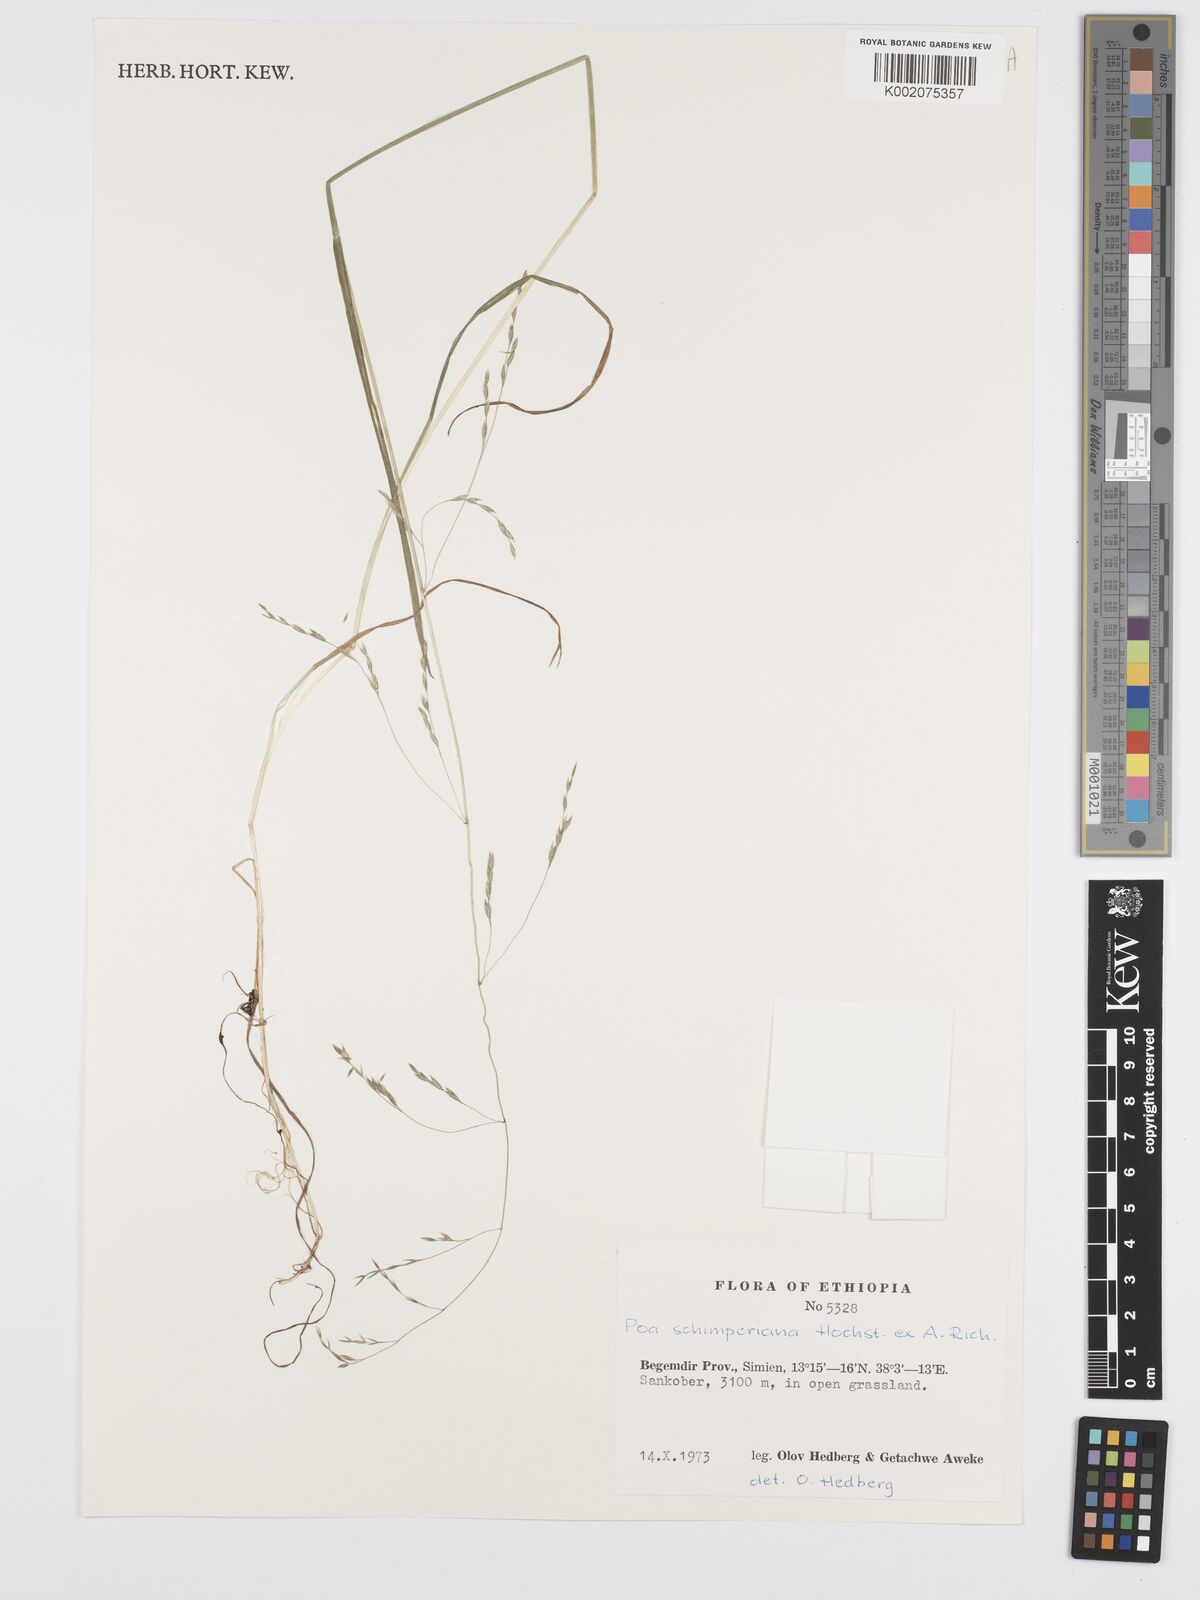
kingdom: Plantae
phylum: Tracheophyta
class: Liliopsida
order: Poales
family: Poaceae
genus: Poa
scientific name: Poa schimperiana
